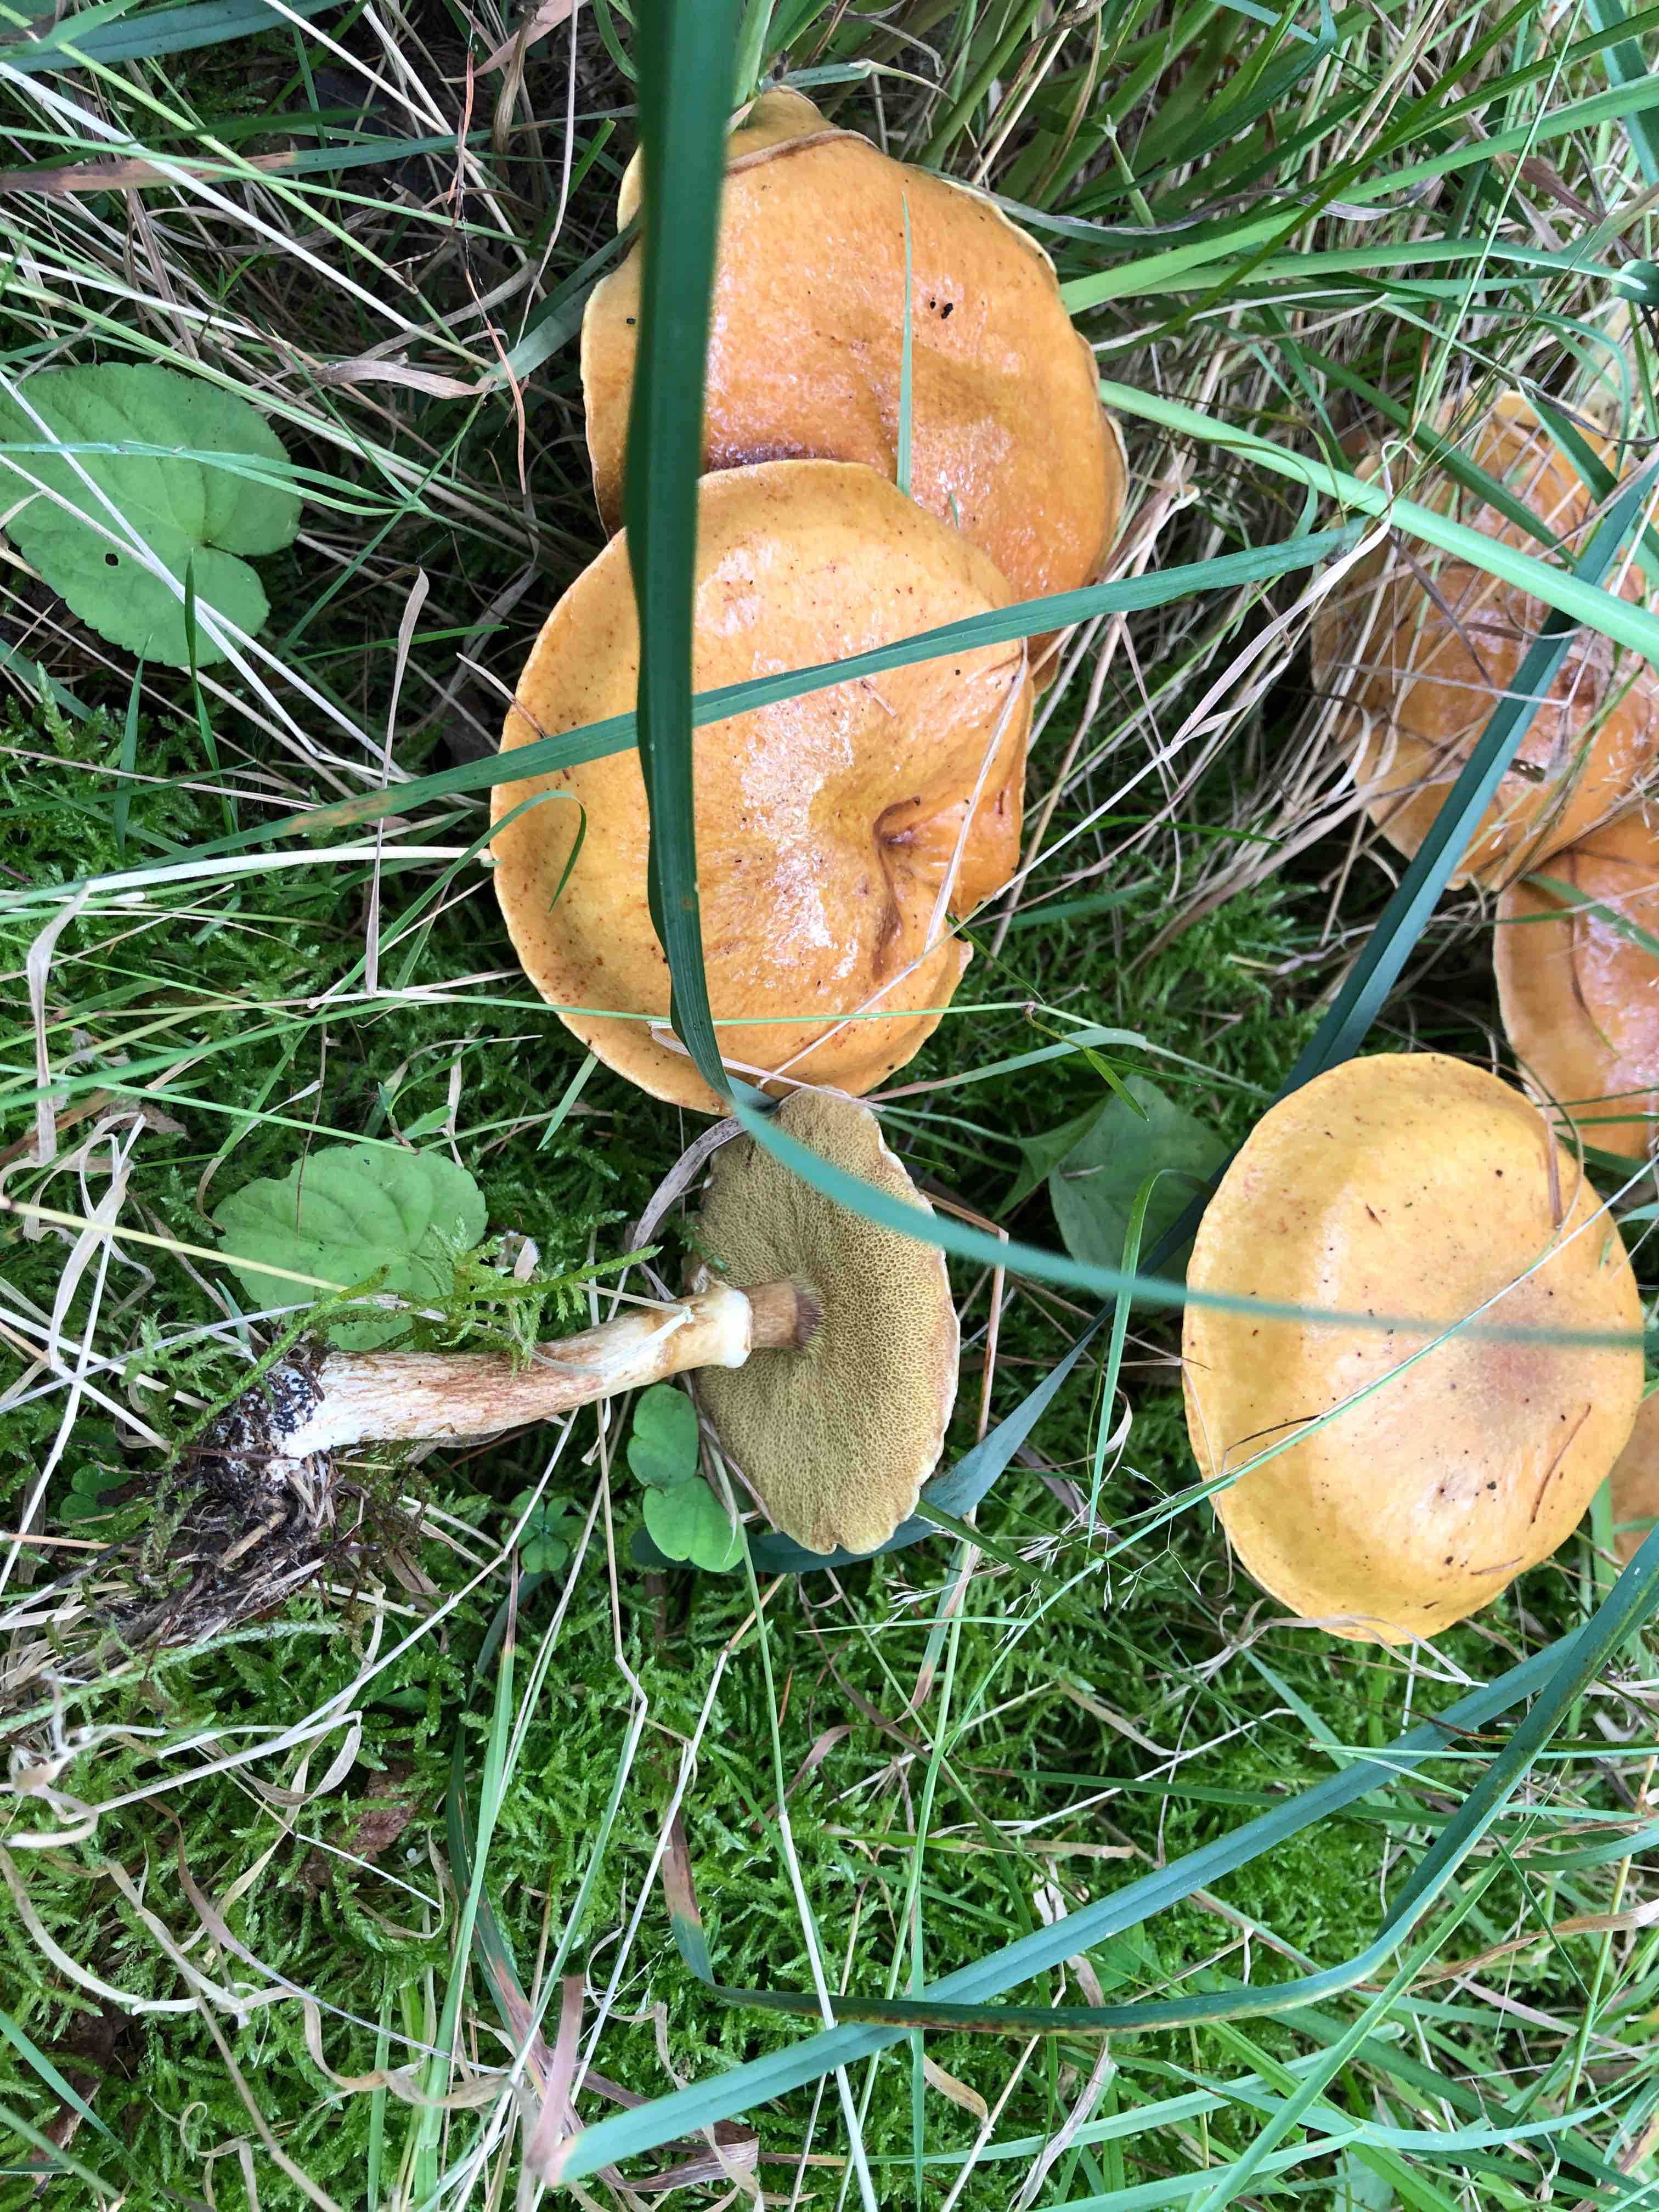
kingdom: Fungi
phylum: Basidiomycota
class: Agaricomycetes
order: Boletales
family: Suillaceae
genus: Suillus
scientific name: Suillus grevillei
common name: lærke-slimrørhat
